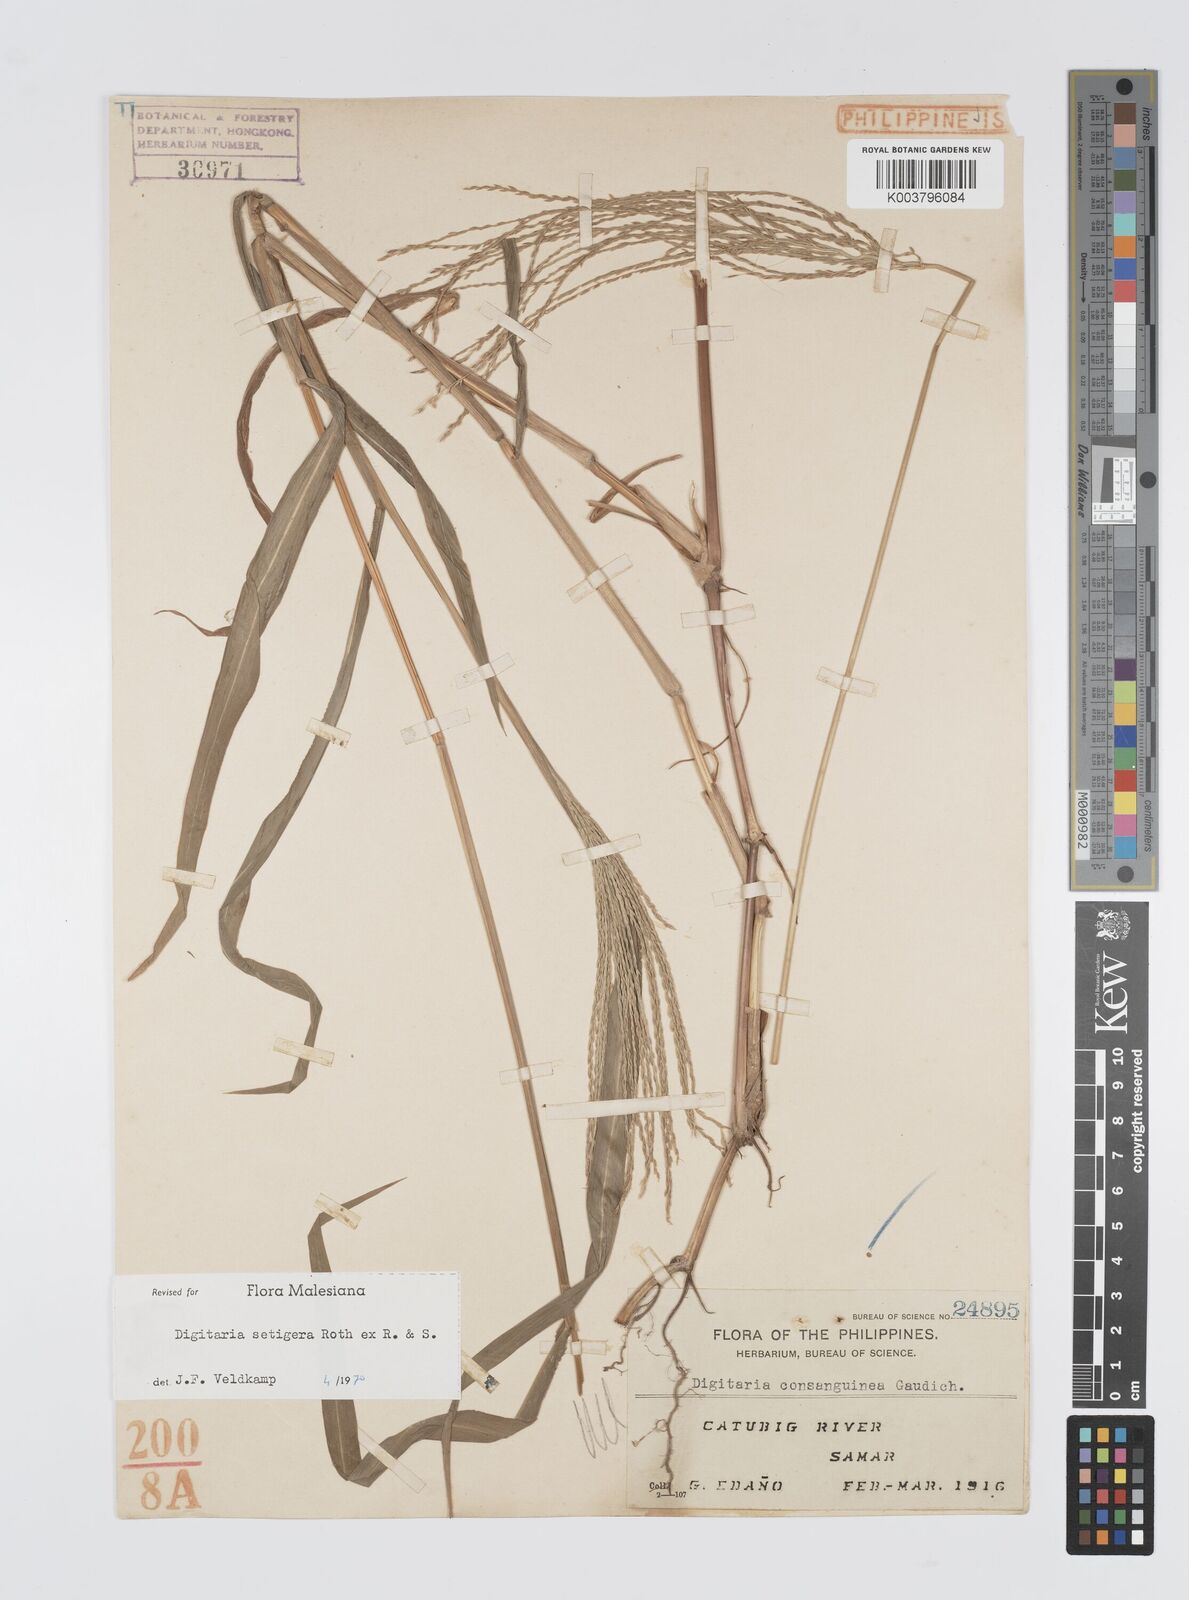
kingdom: Plantae
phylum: Tracheophyta
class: Liliopsida
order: Poales
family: Poaceae
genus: Digitaria
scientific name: Digitaria setigera
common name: East indian crabgrass
